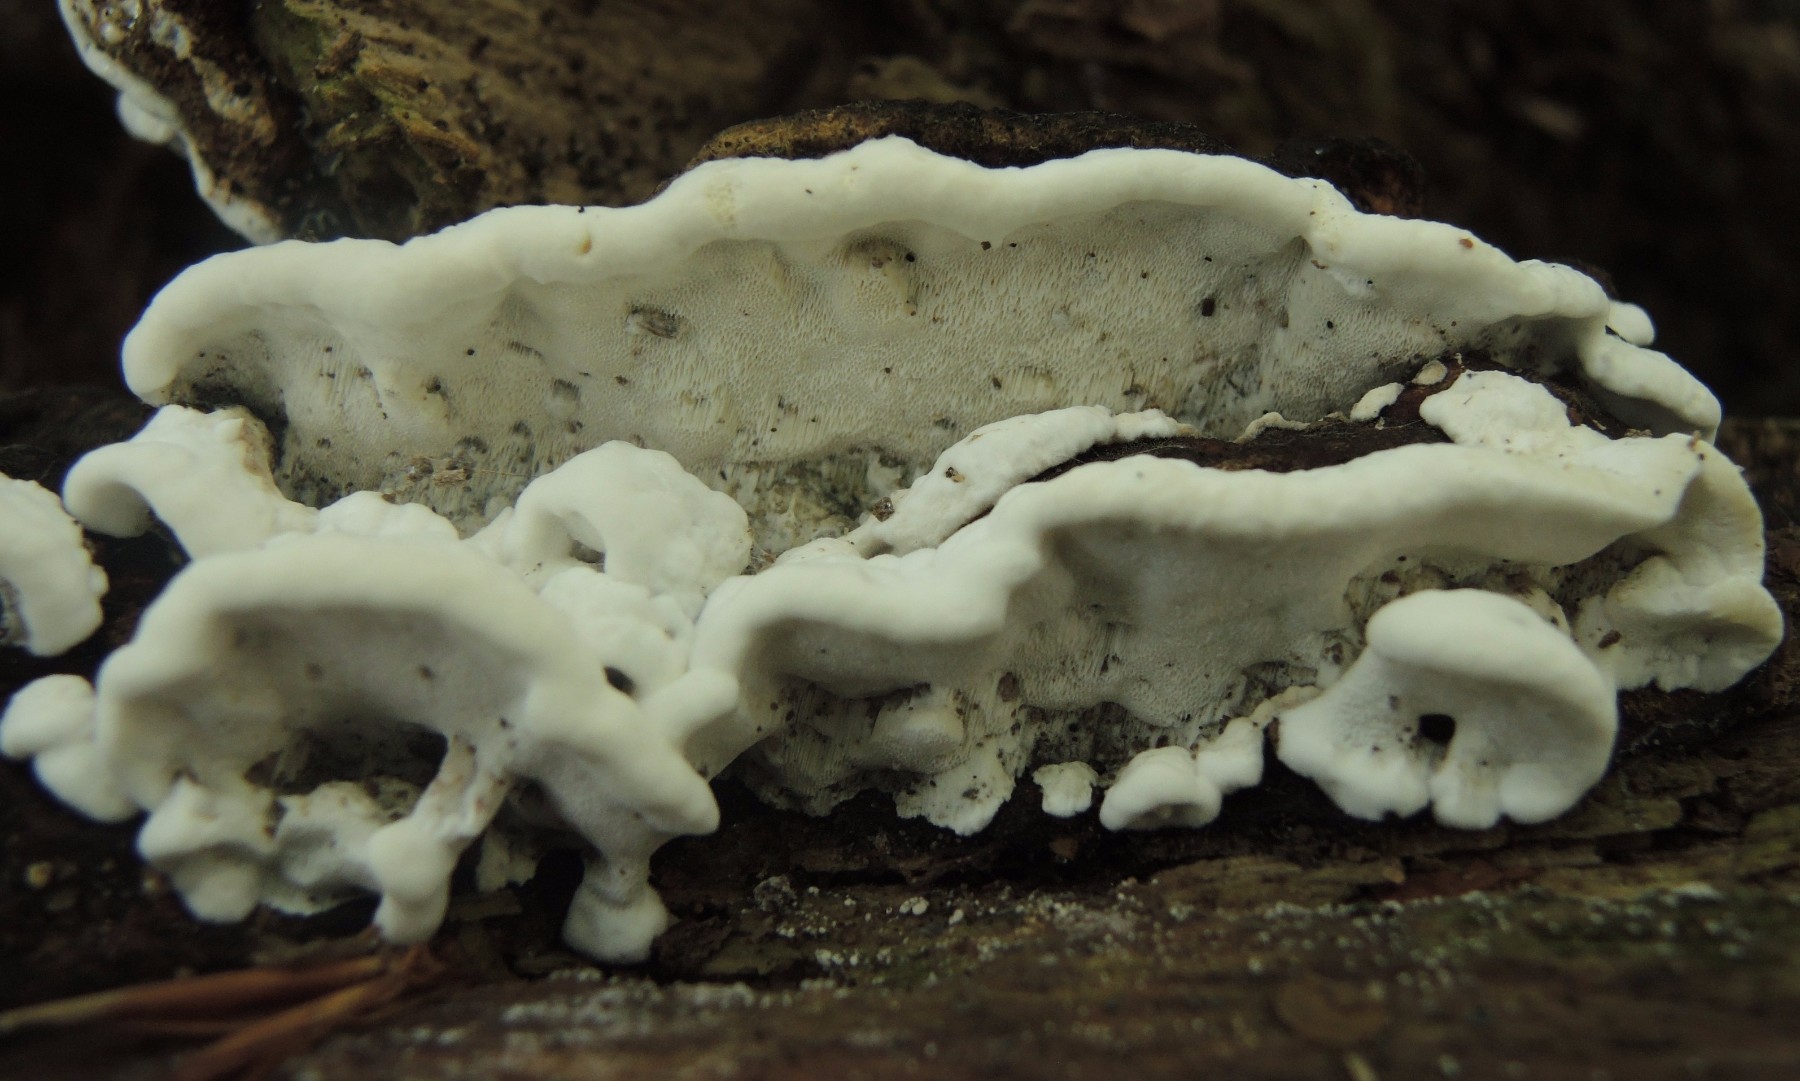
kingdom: Fungi
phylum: Basidiomycota
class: Agaricomycetes
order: Polyporales
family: Incrustoporiaceae
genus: Skeletocutis
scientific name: Skeletocutis nemoralis
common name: stor krystalporesvamp
